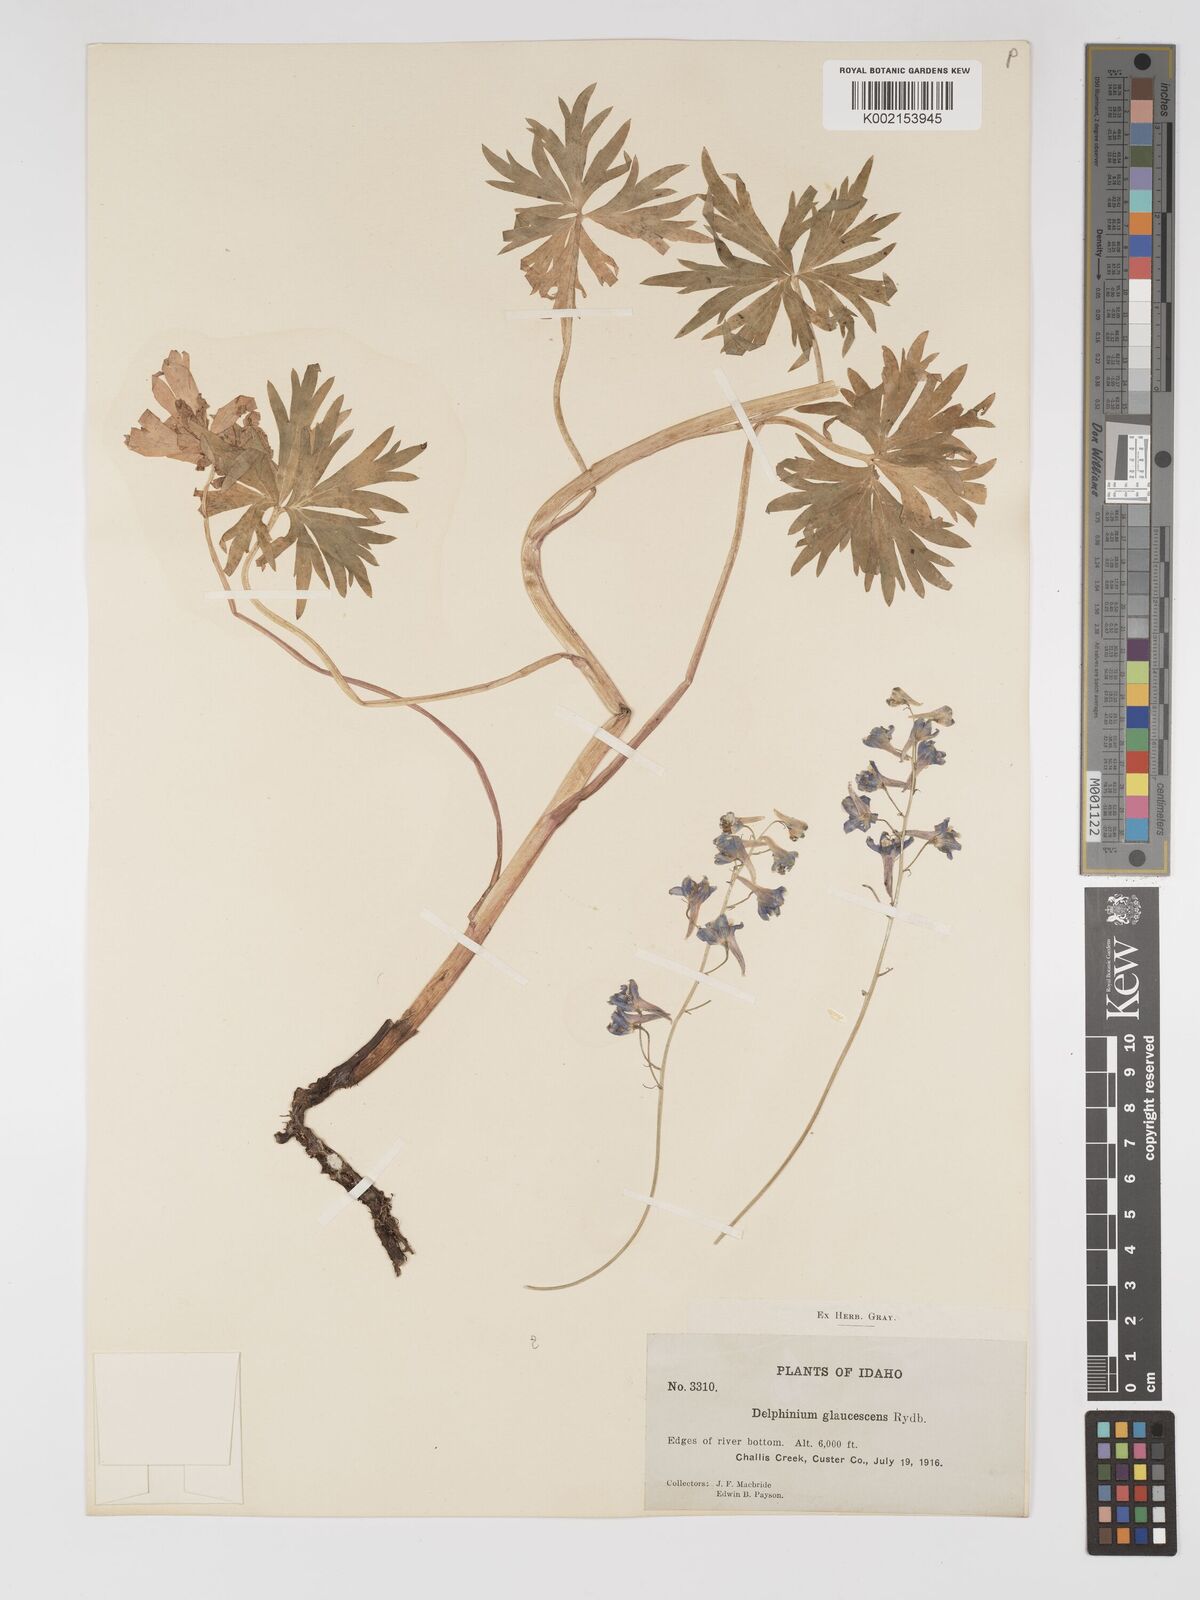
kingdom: Plantae
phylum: Tracheophyta
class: Magnoliopsida
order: Ranunculales
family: Ranunculaceae
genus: Delphinium
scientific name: Delphinium glaucescens
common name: Glaucous larkspur
